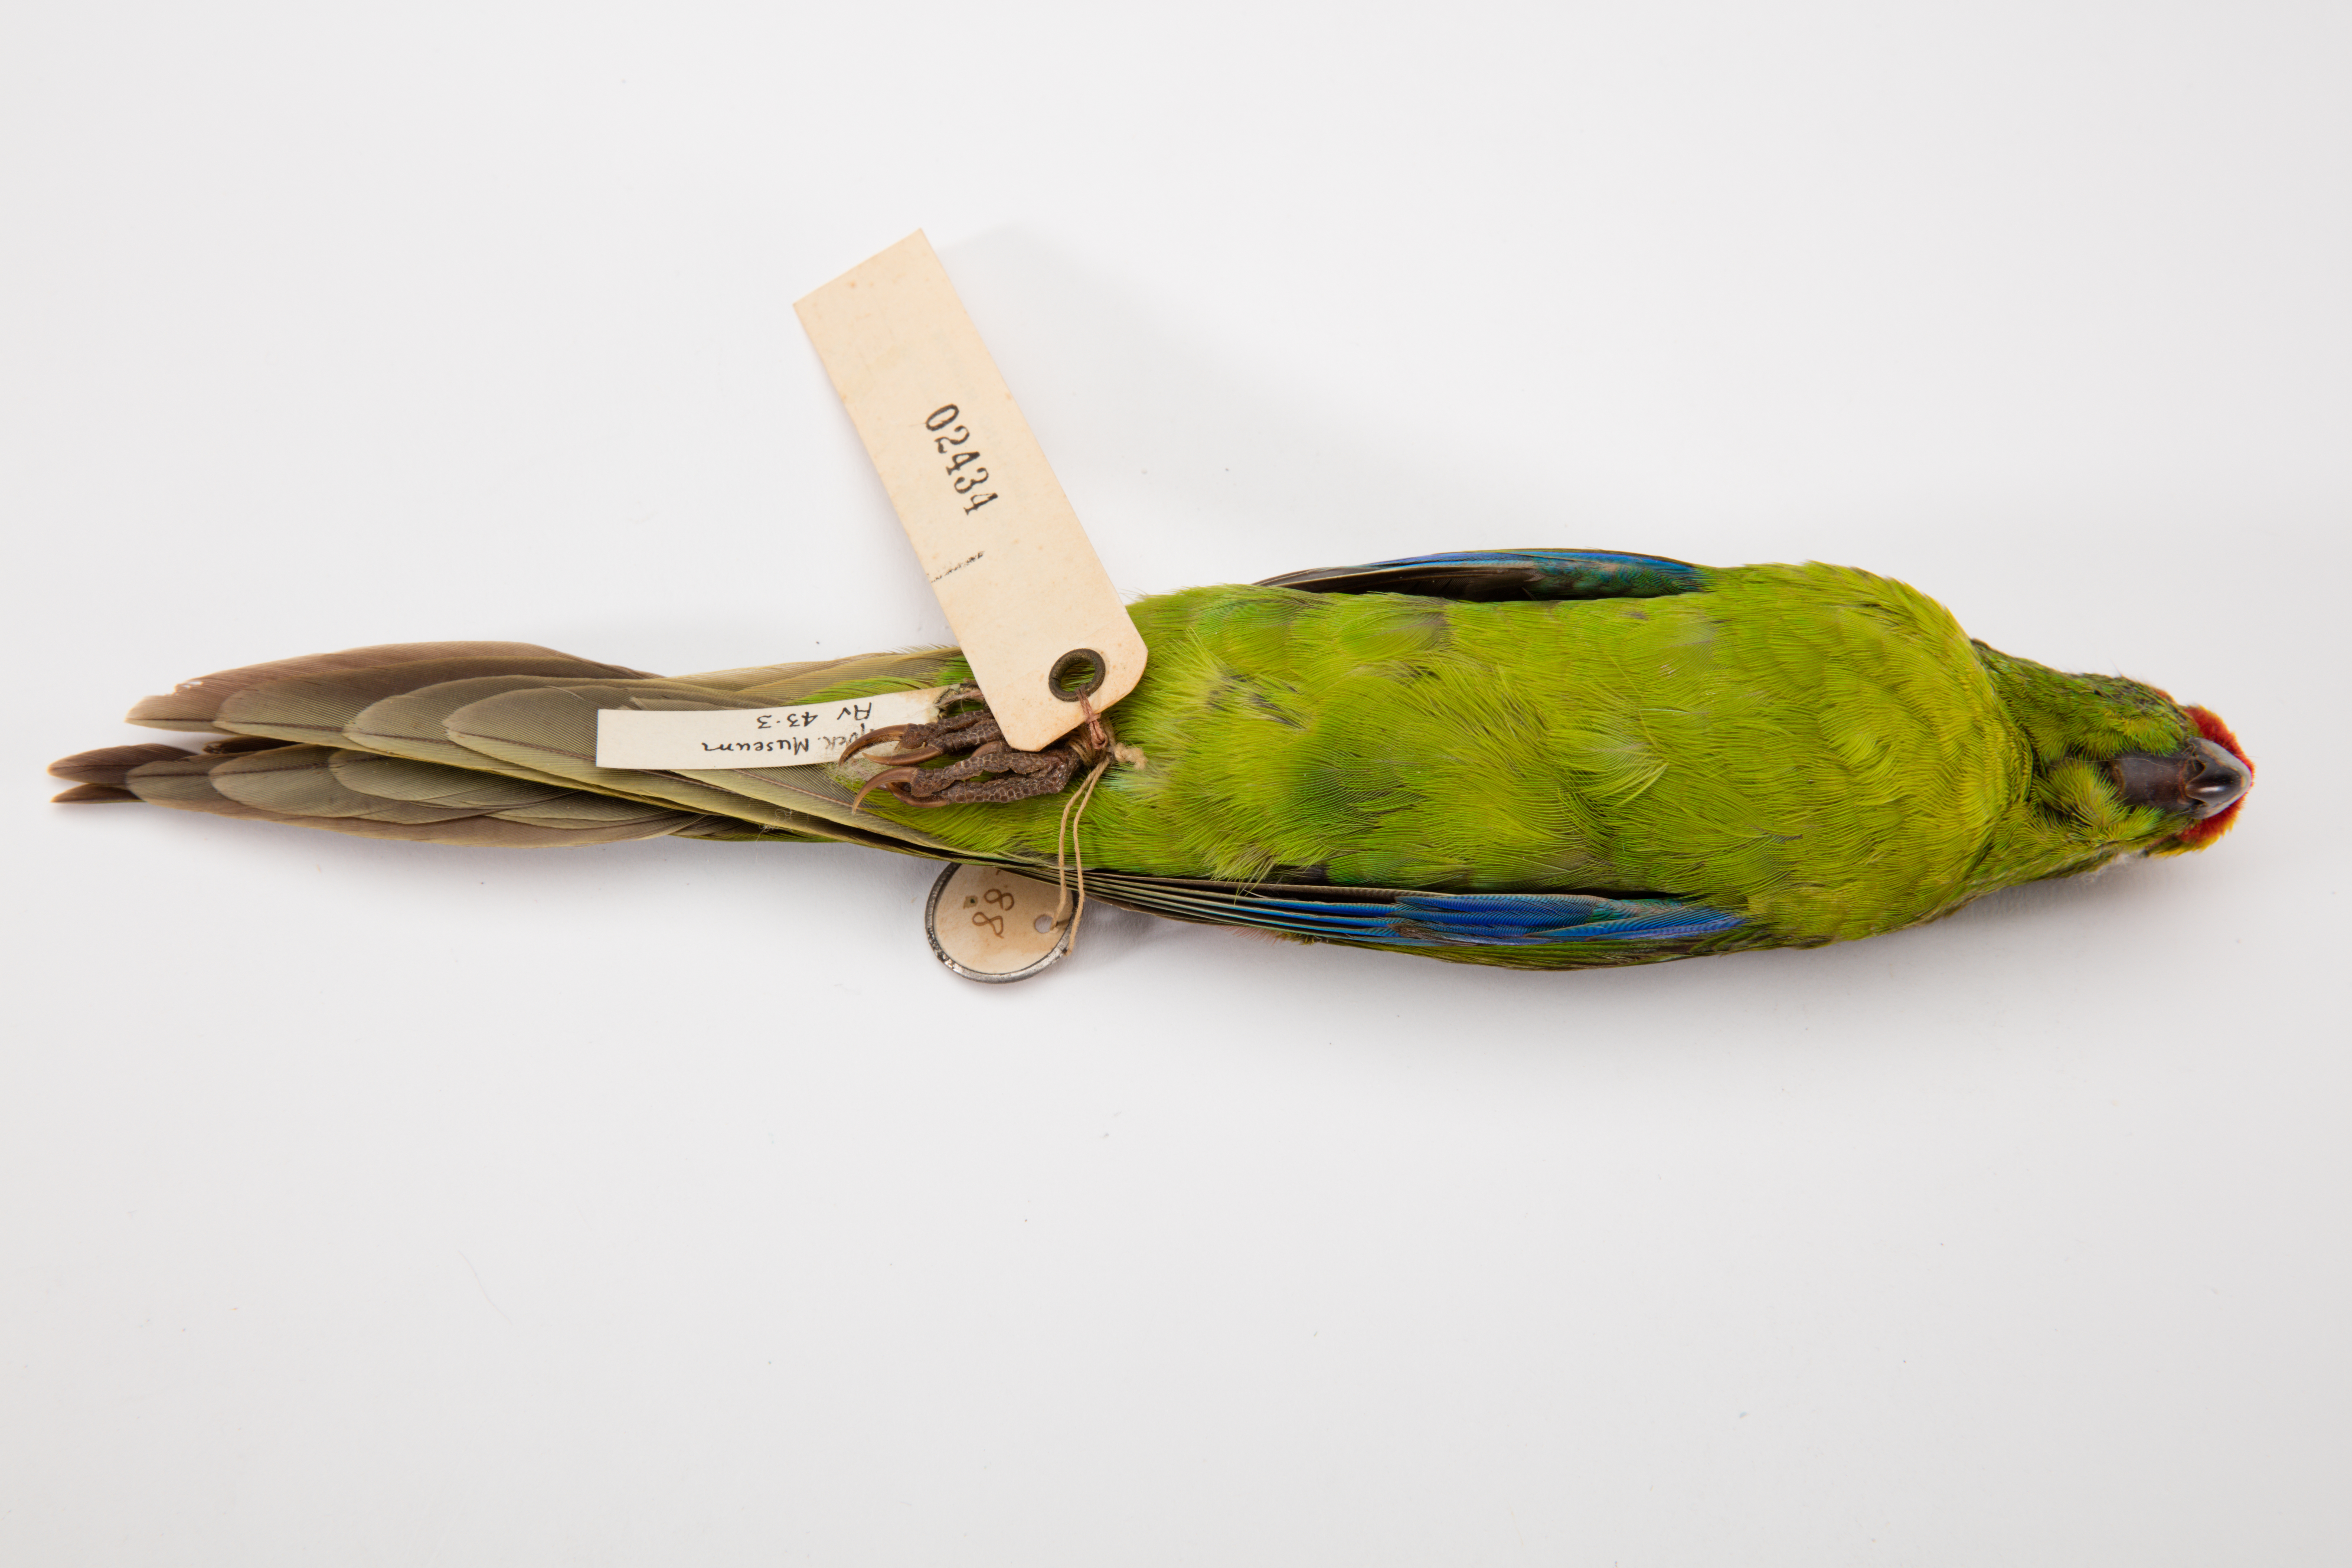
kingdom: Animalia
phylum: Chordata
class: Aves
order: Psittaciformes
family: Psittacidae
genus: Cyanoramphus
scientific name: Cyanoramphus auriceps
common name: Yellow-crowned parakeet
